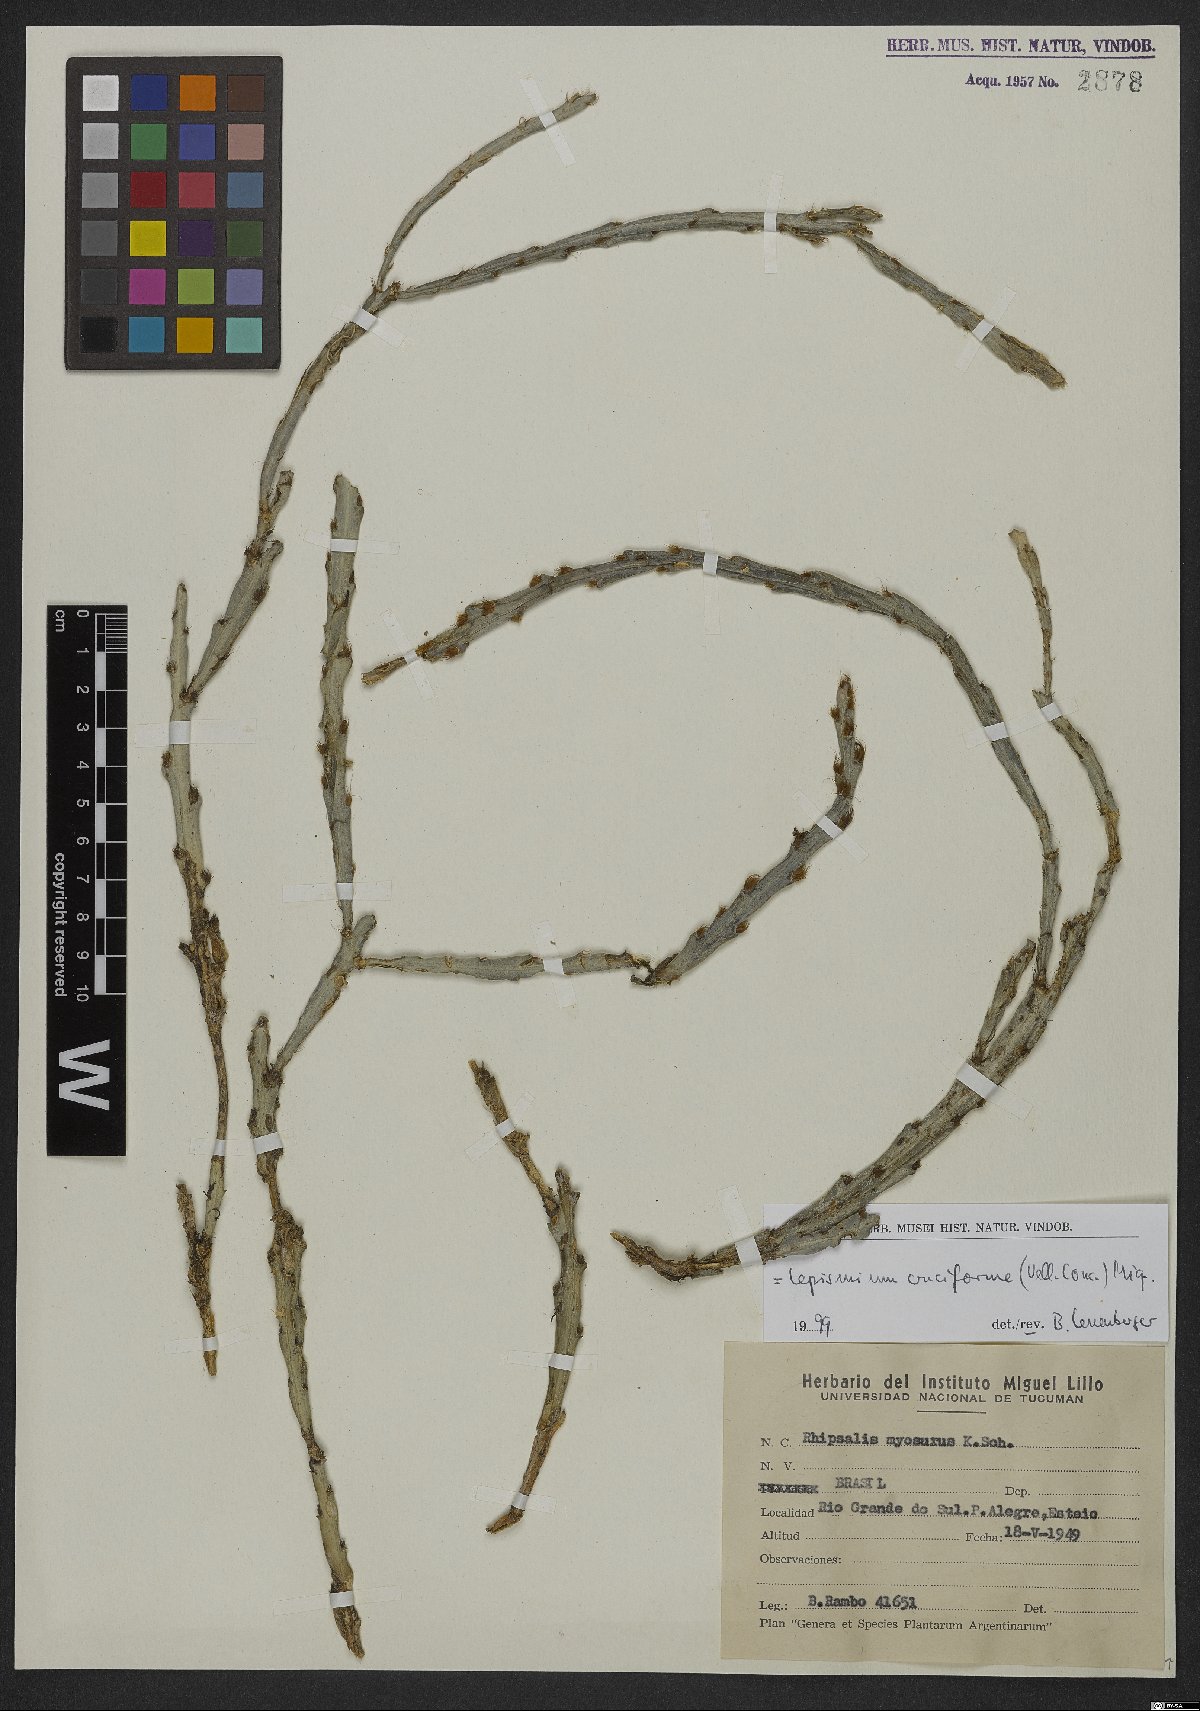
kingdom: Plantae
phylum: Tracheophyta
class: Magnoliopsida
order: Caryophyllales
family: Cactaceae
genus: Lepismium
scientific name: Lepismium cruciforme
